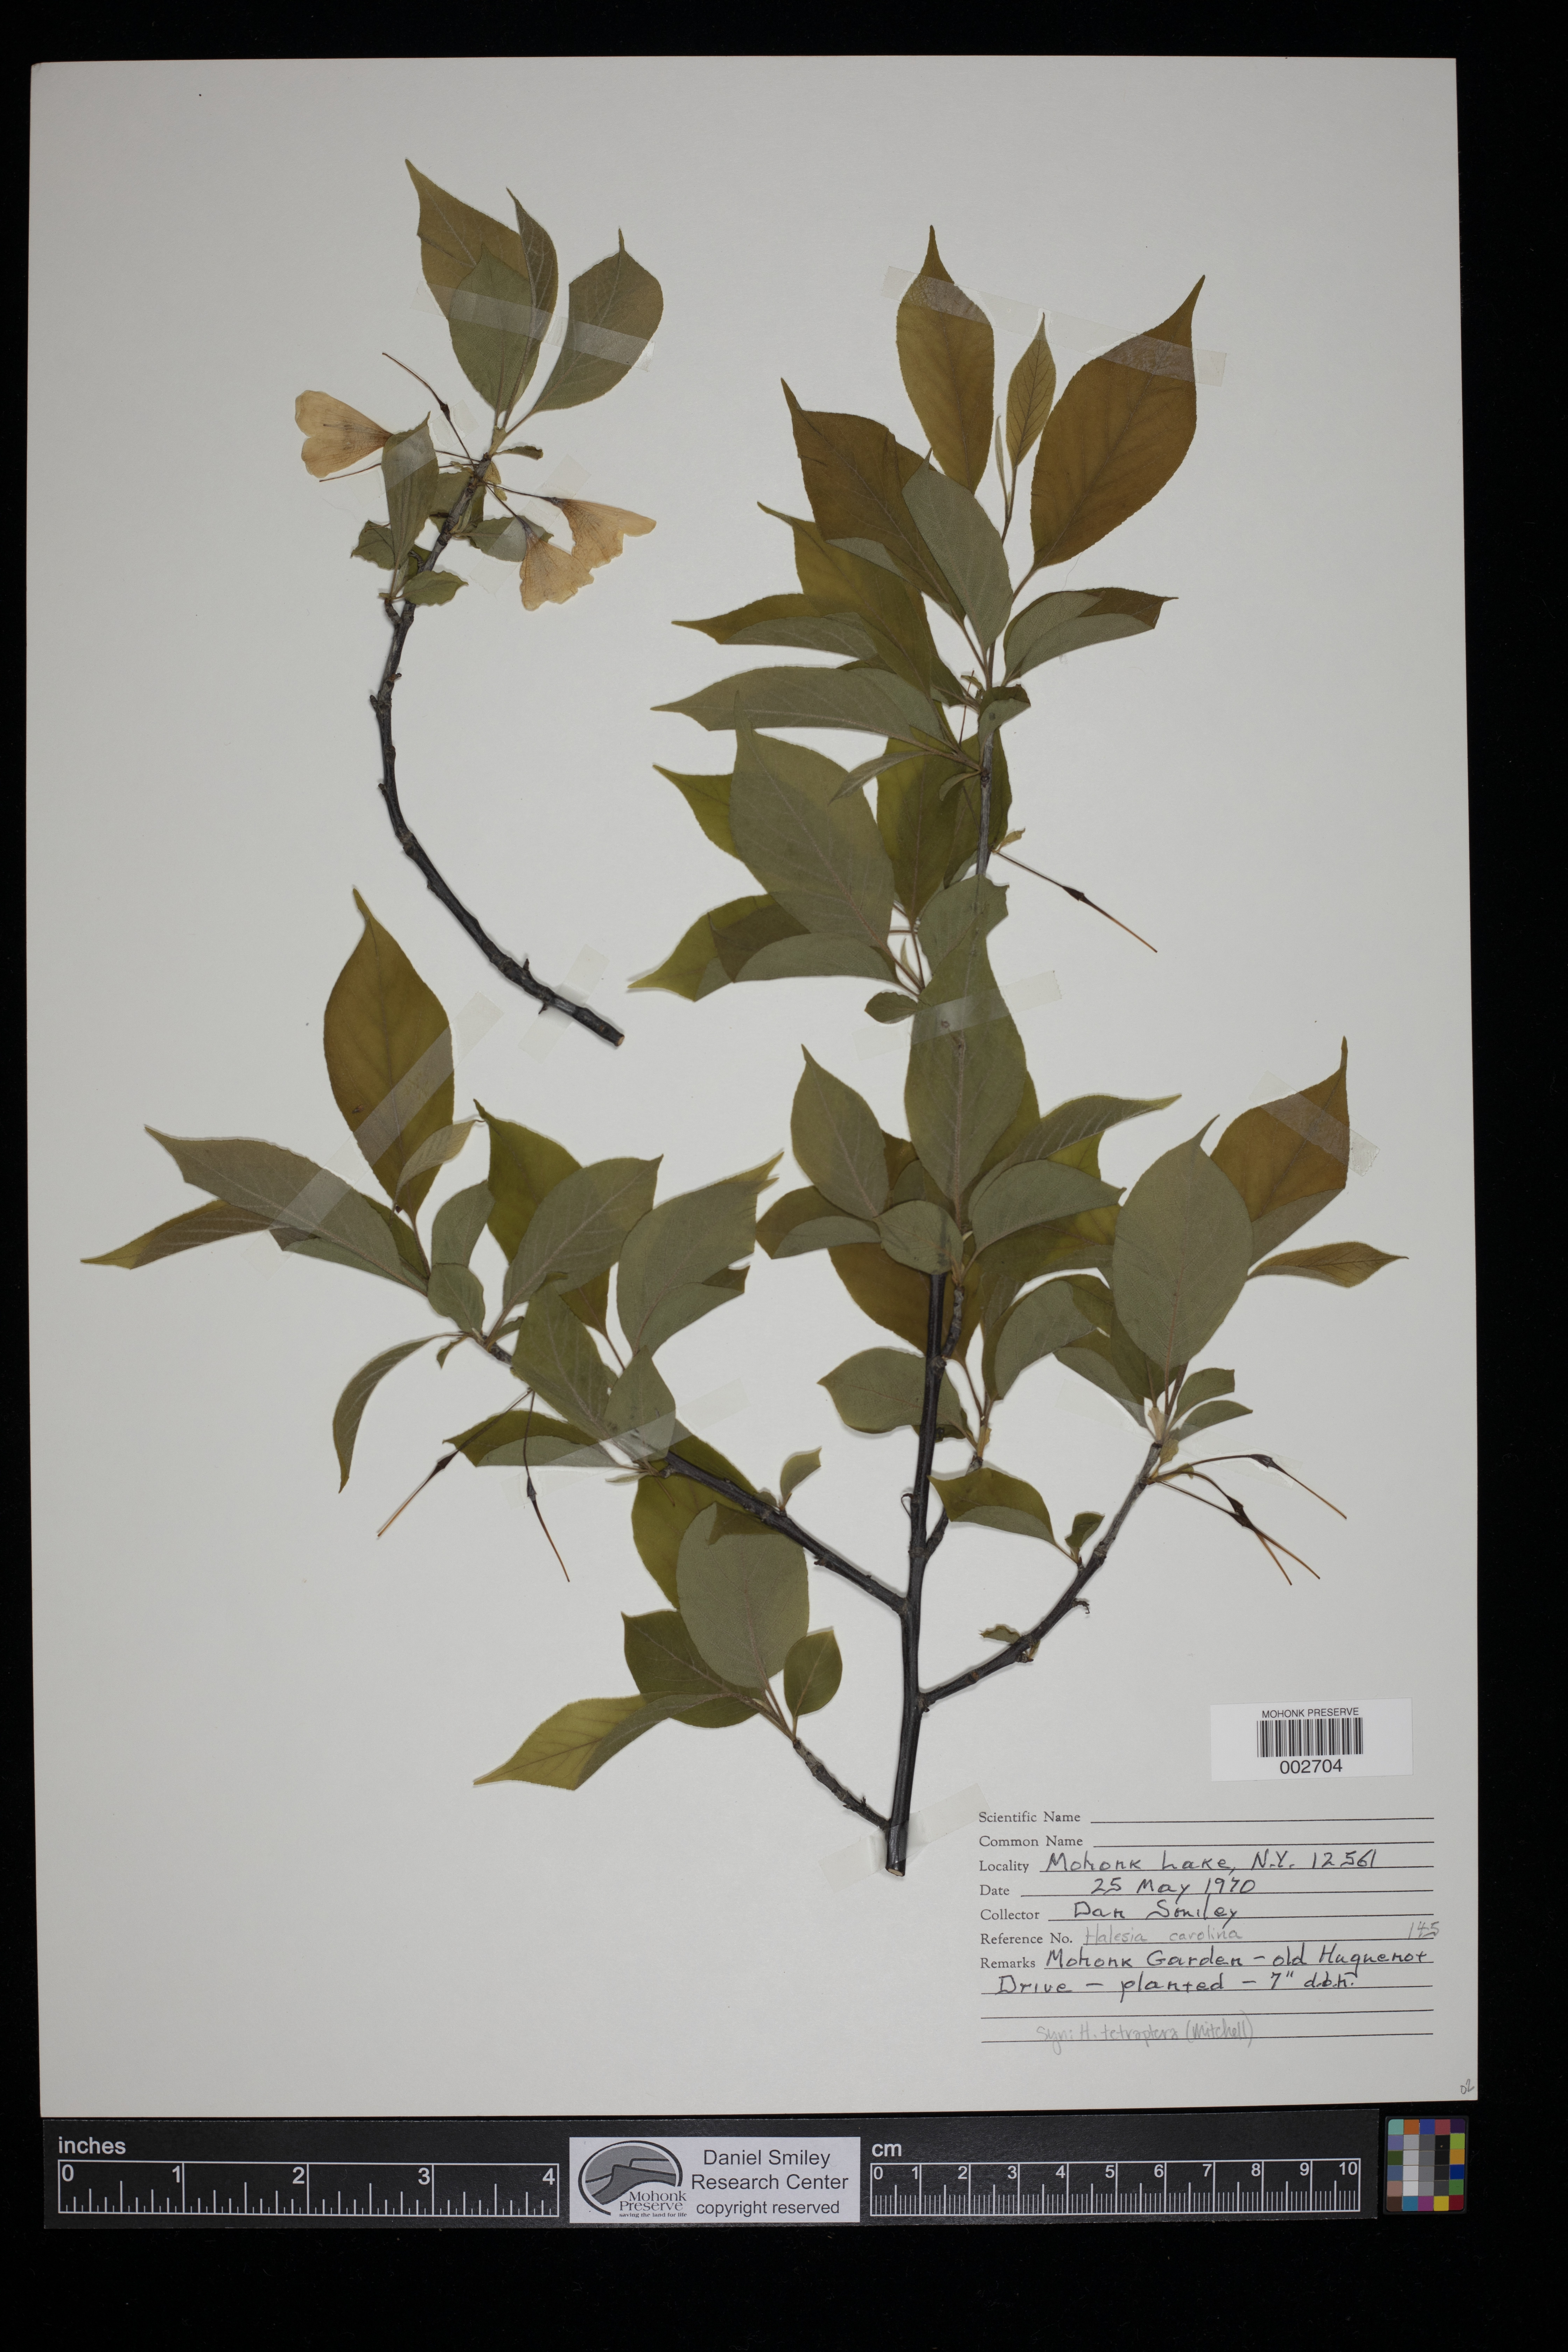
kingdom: Plantae
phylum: Tracheophyta
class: Magnoliopsida
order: Ericales
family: Styracaceae
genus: Halesia
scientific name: Halesia tetraptera
